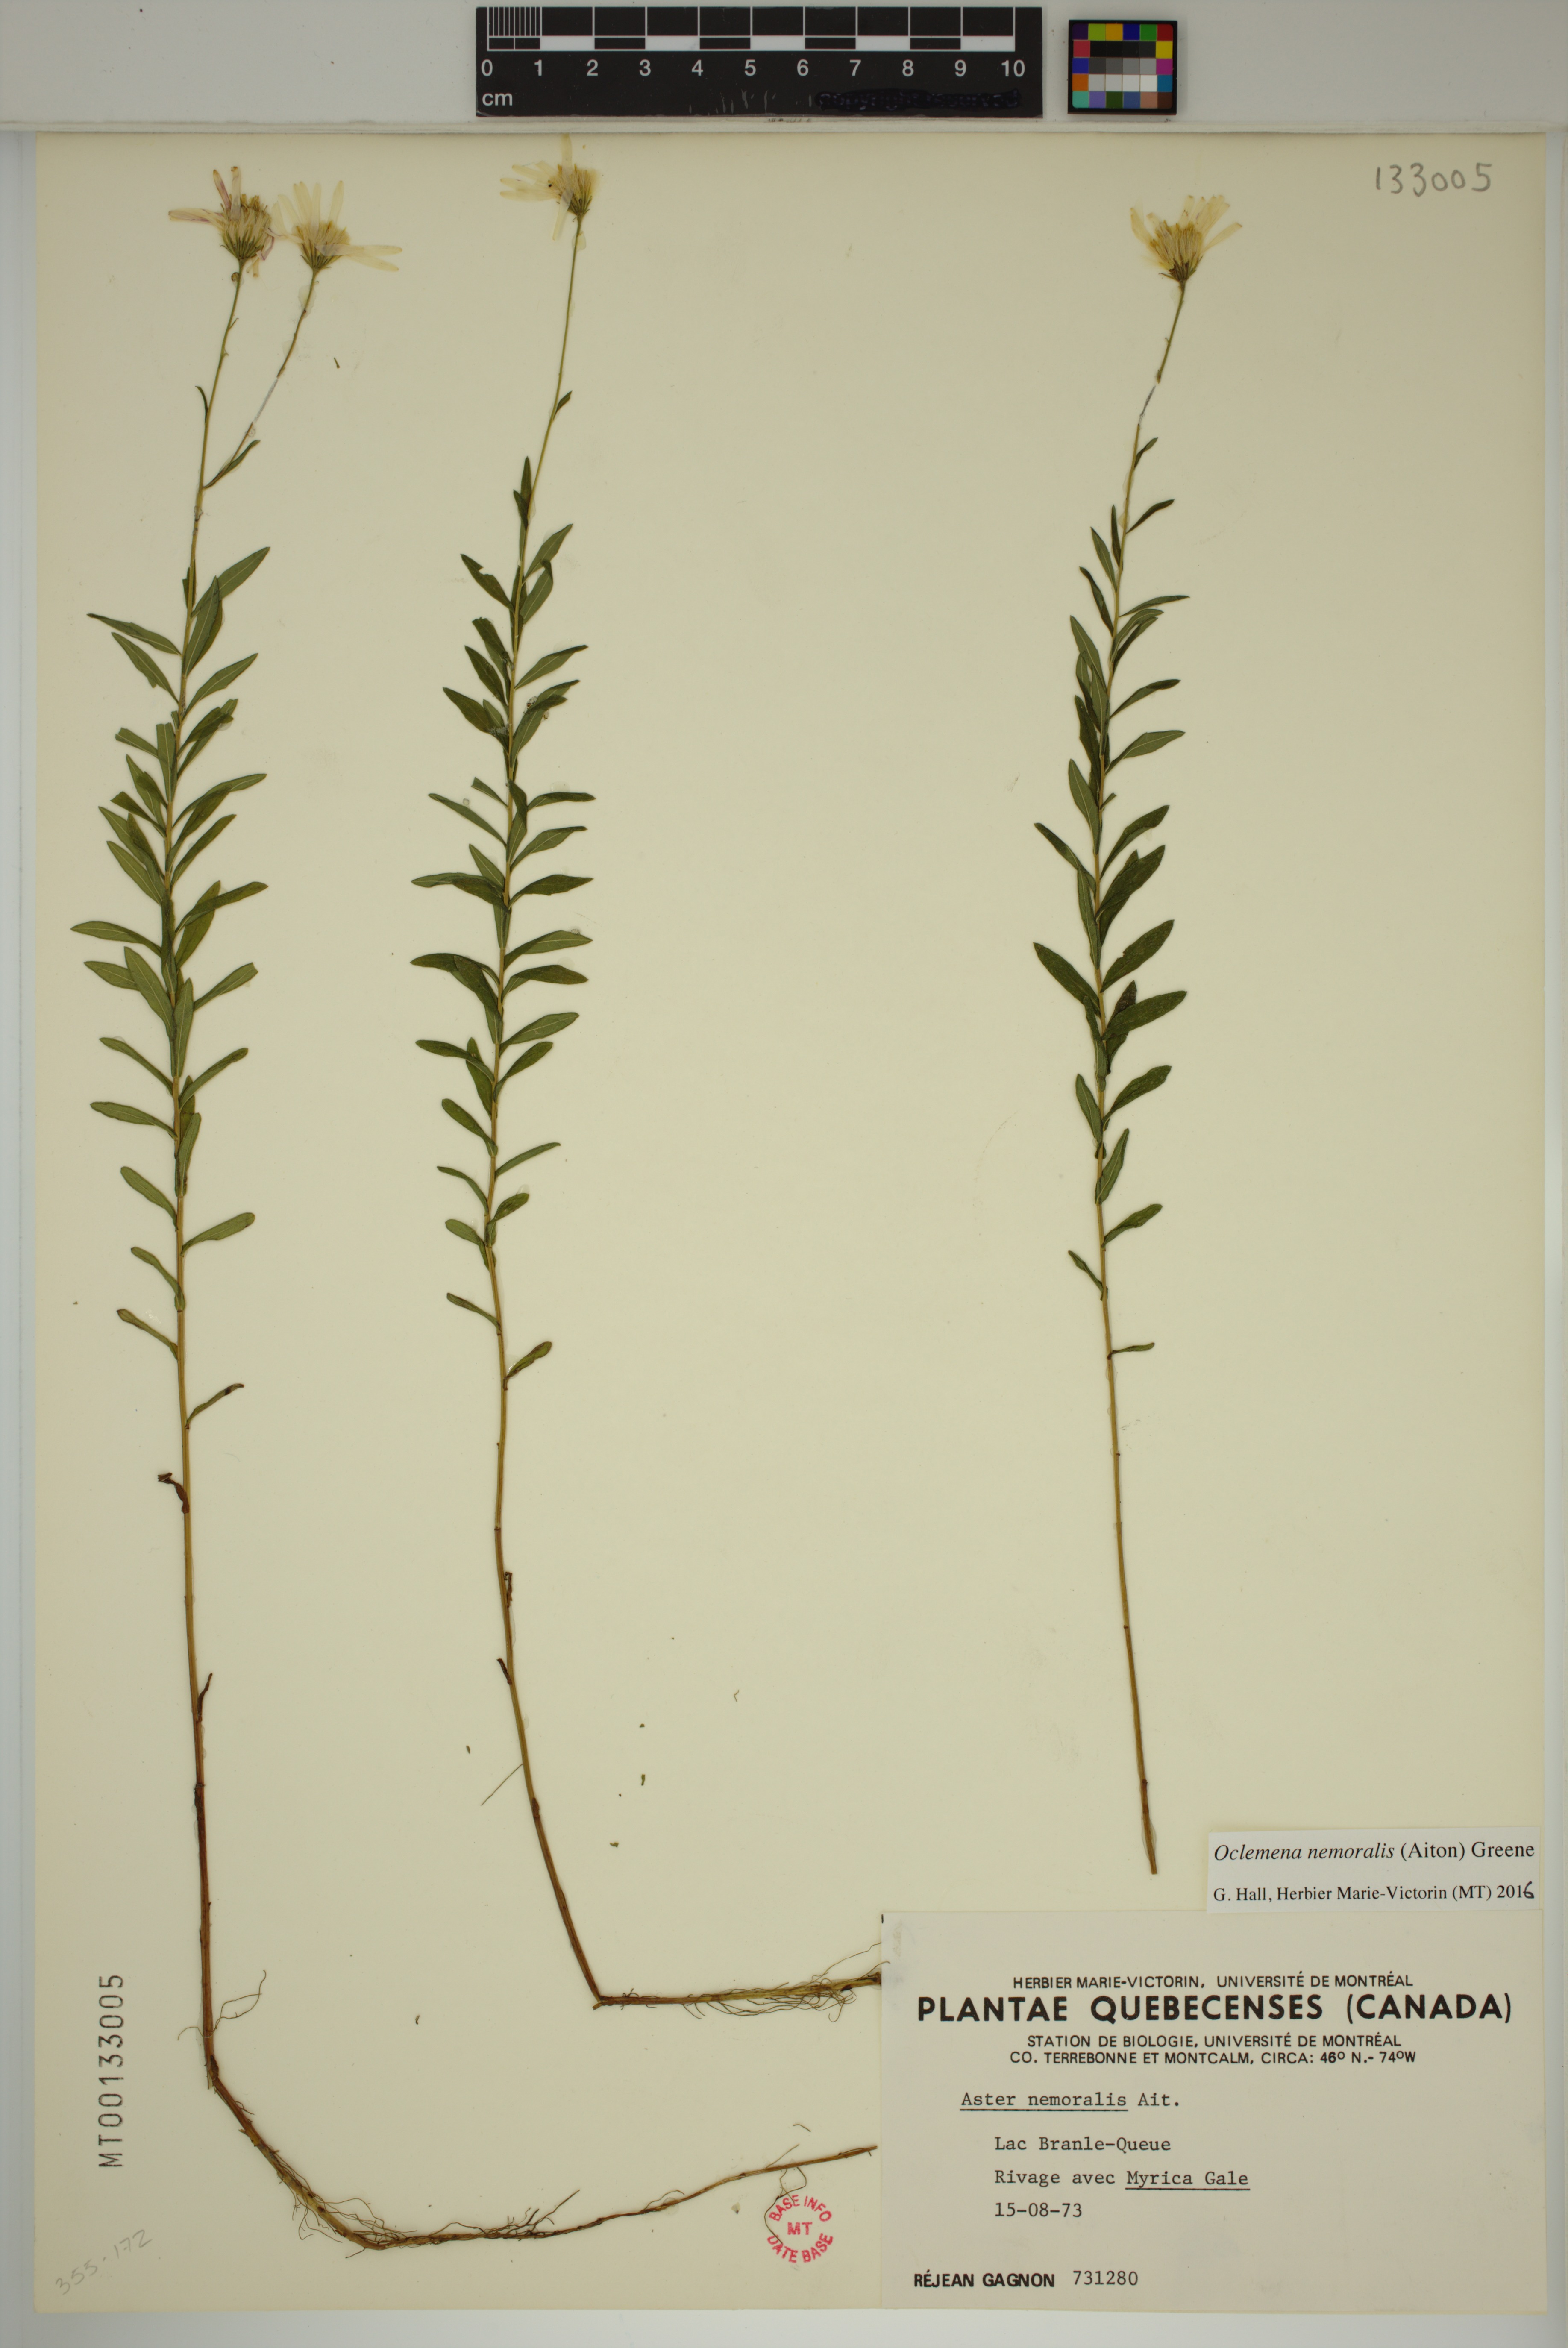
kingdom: Plantae
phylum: Tracheophyta
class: Magnoliopsida
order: Asterales
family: Asteraceae
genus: Oclemena
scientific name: Oclemena nemoralis
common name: Bog aster
